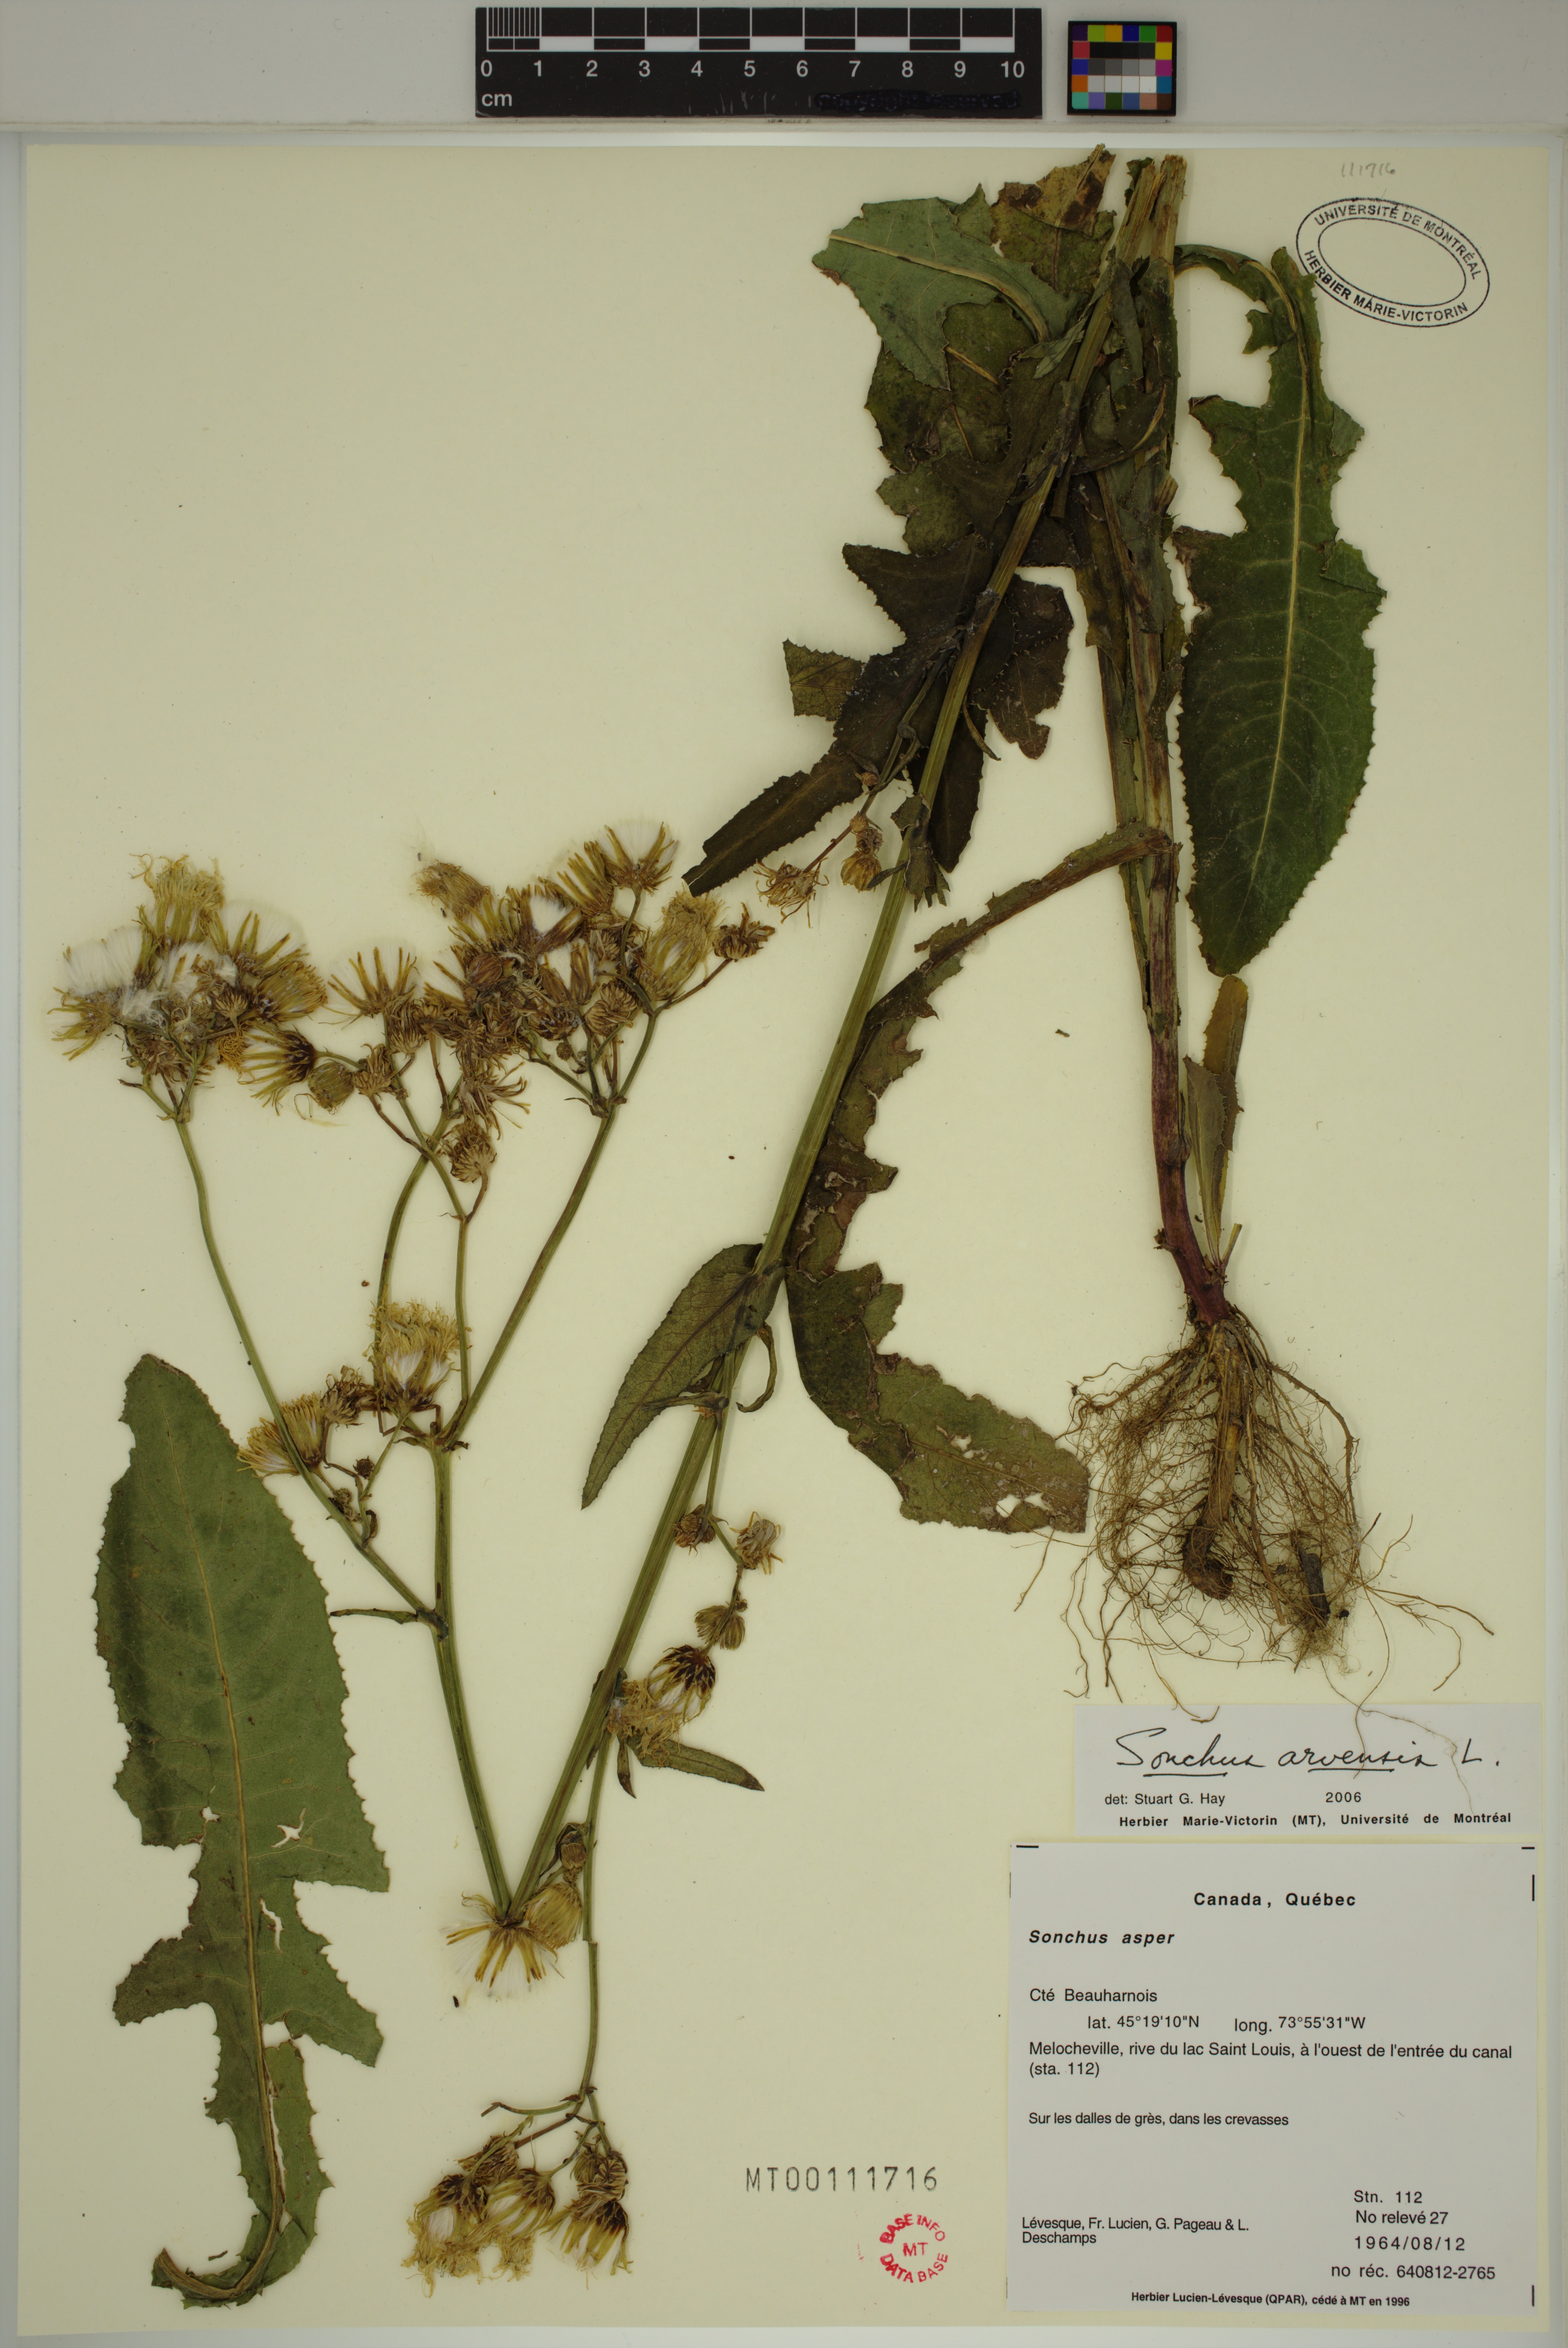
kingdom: Plantae
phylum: Tracheophyta
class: Magnoliopsida
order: Asterales
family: Asteraceae
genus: Sonchus
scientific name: Sonchus arvensis
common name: Perennial sow-thistle
